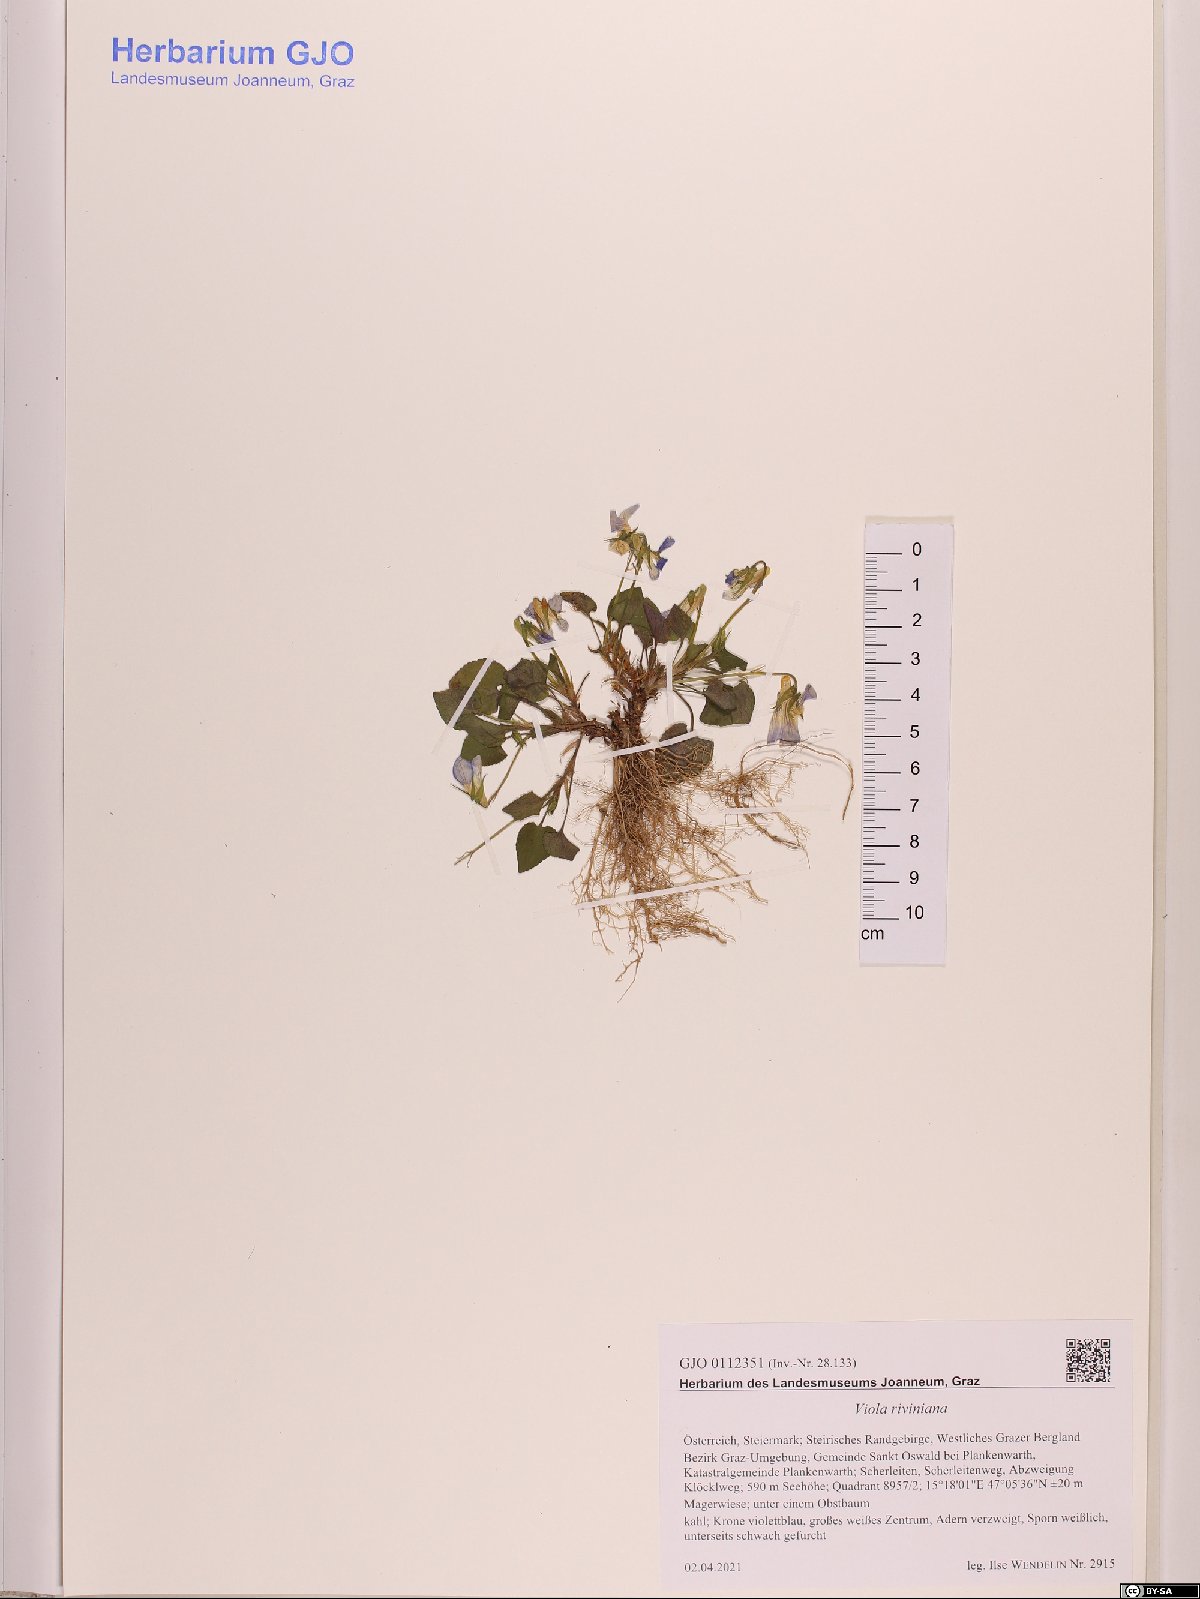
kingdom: Plantae
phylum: Tracheophyta
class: Magnoliopsida
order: Malpighiales
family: Violaceae
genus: Viola
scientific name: Viola riviniana
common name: Common dog-violet
